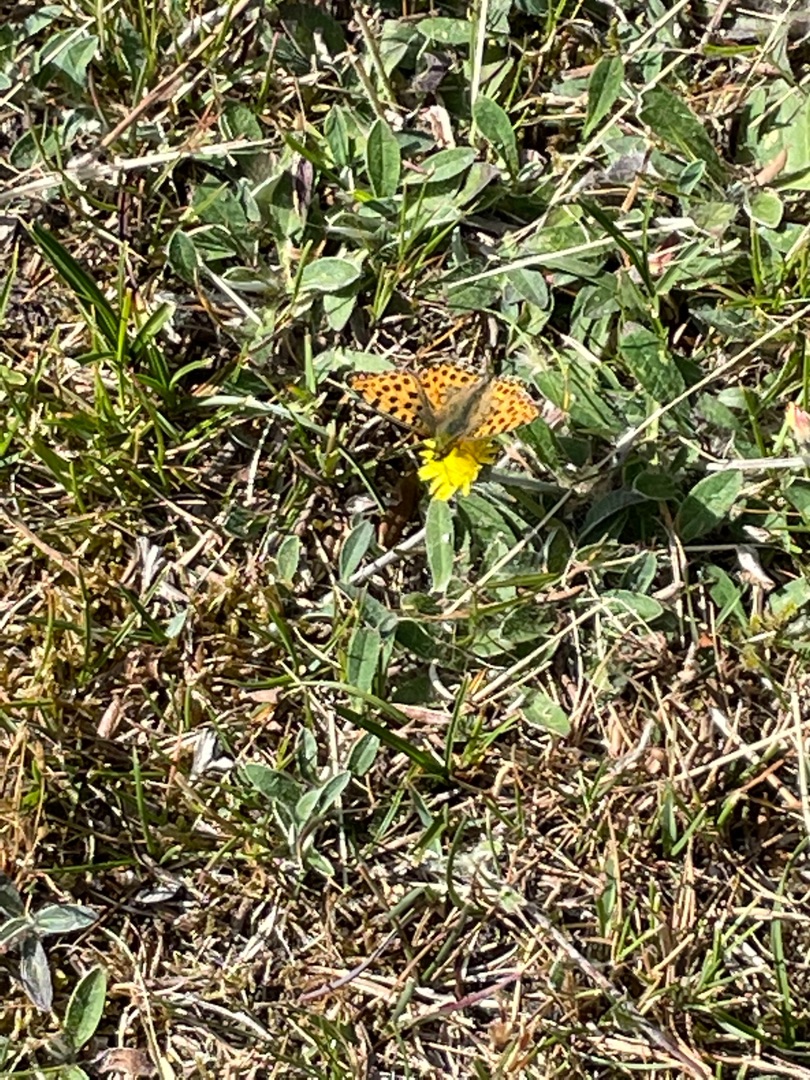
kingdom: Animalia
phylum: Arthropoda
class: Insecta
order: Lepidoptera
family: Nymphalidae
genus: Issoria
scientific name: Issoria lathonia
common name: Storplettet perlemorsommerfugl
